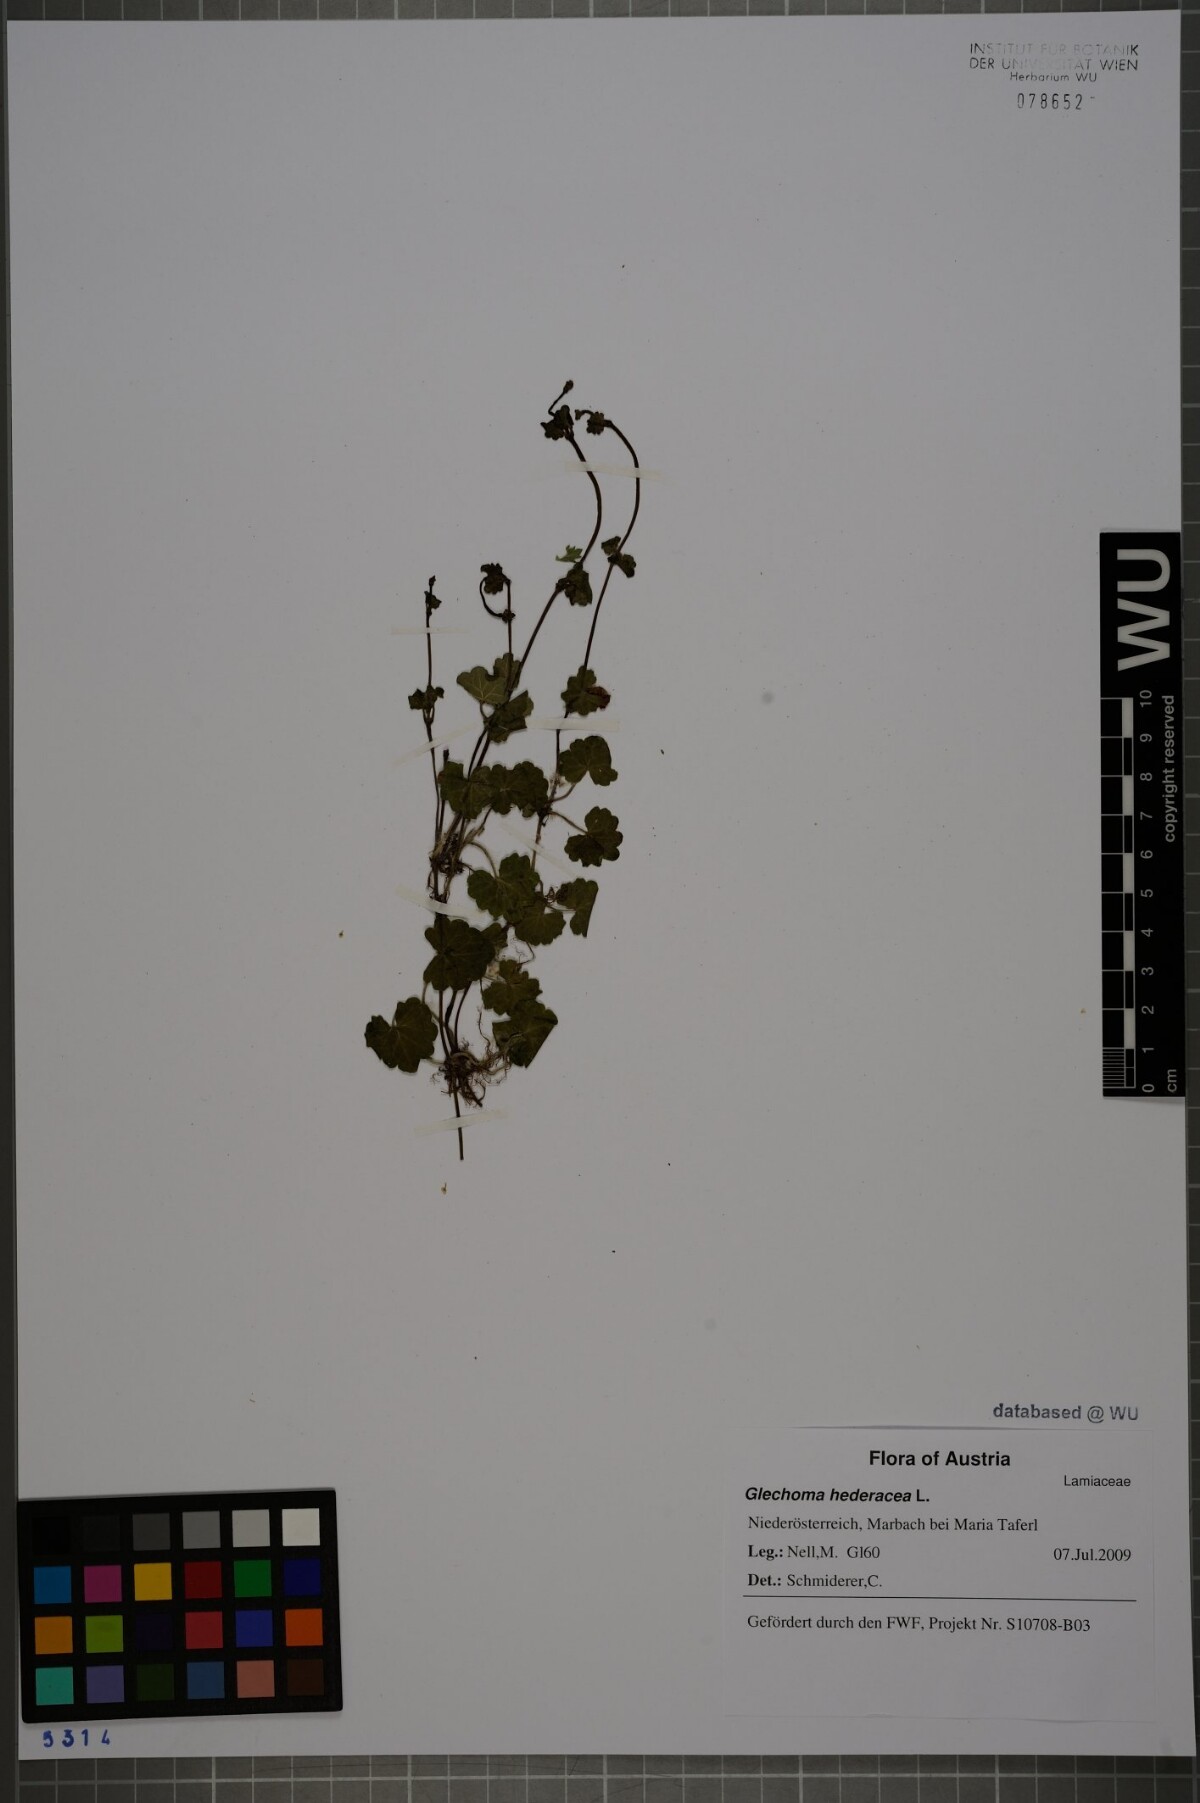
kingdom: Plantae
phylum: Tracheophyta
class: Magnoliopsida
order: Lamiales
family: Lamiaceae
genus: Glechoma
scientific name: Glechoma hederacea
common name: Ground ivy
